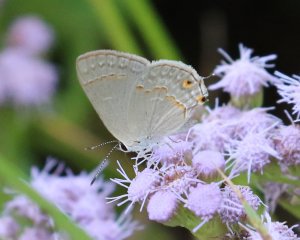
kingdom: Animalia
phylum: Arthropoda
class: Insecta
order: Lepidoptera
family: Lycaenidae
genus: Thecla
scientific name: Thecla rufofusca
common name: Red-crescent Scrub-Hairstreak
